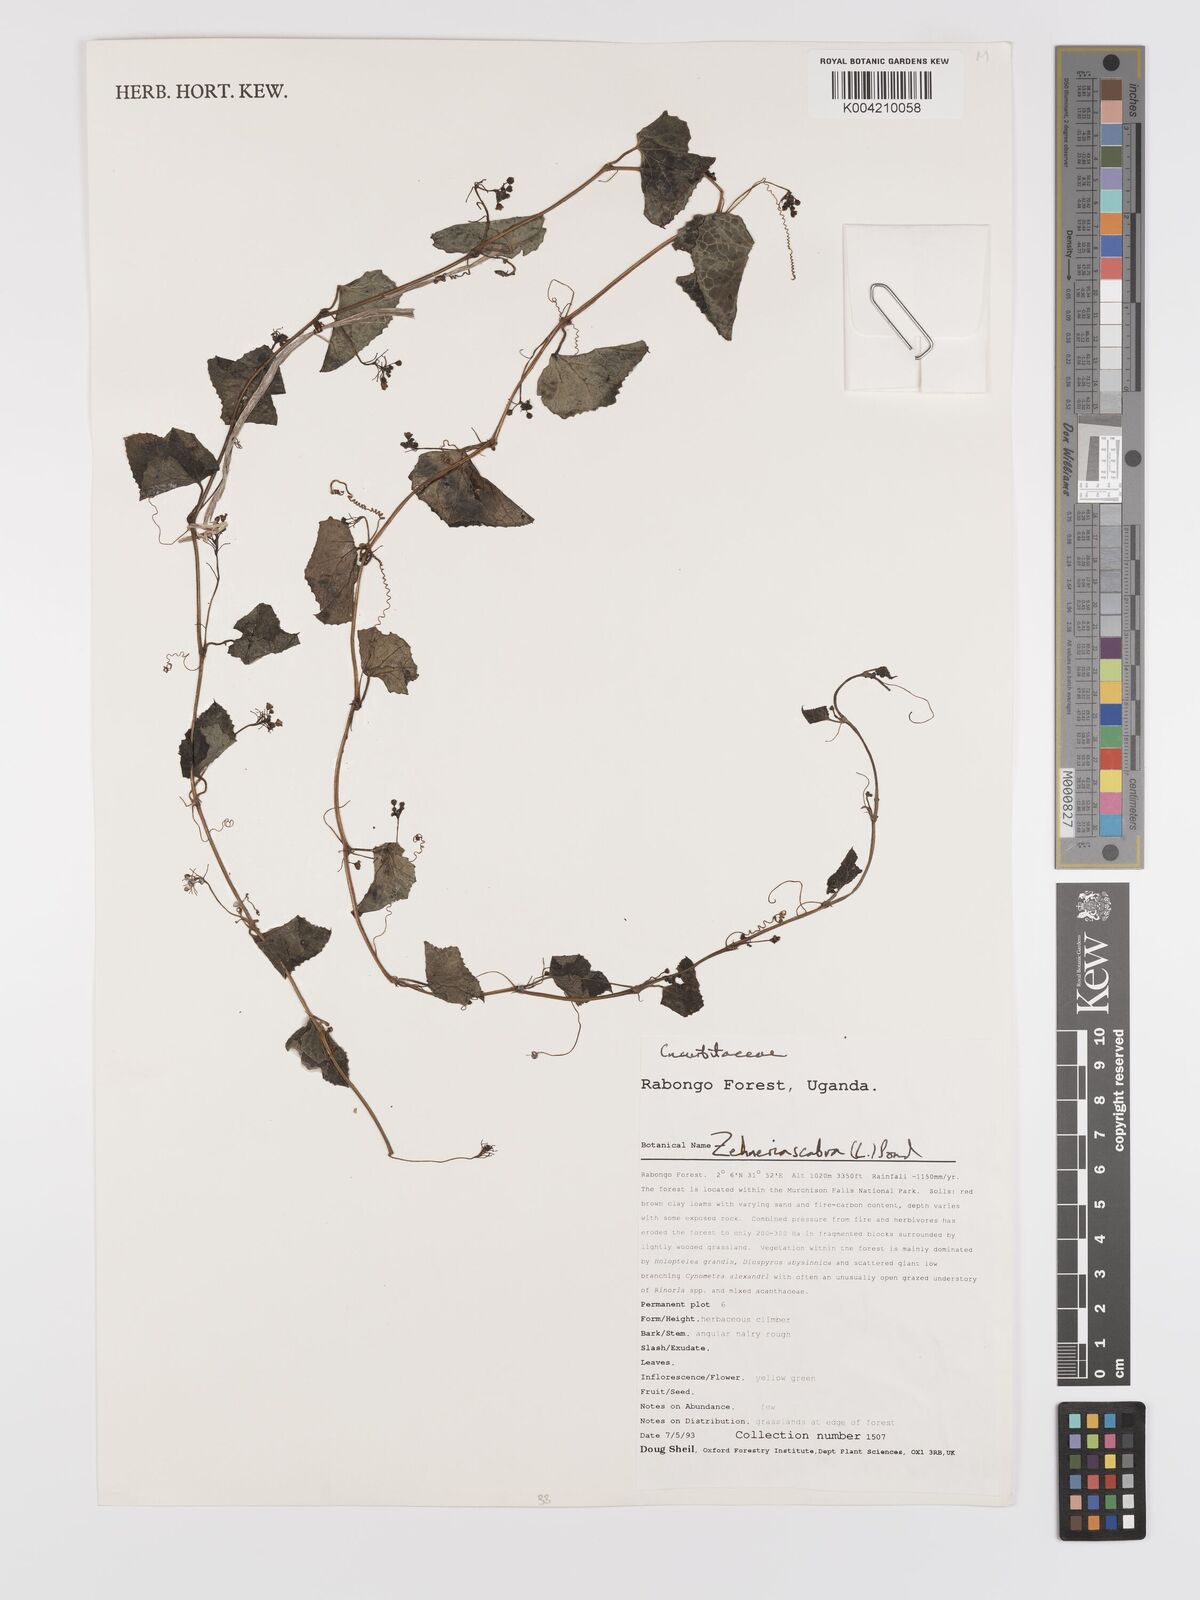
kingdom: Plantae
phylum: Tracheophyta
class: Magnoliopsida
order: Cucurbitales
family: Cucurbitaceae
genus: Zehneria
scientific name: Zehneria scabra
